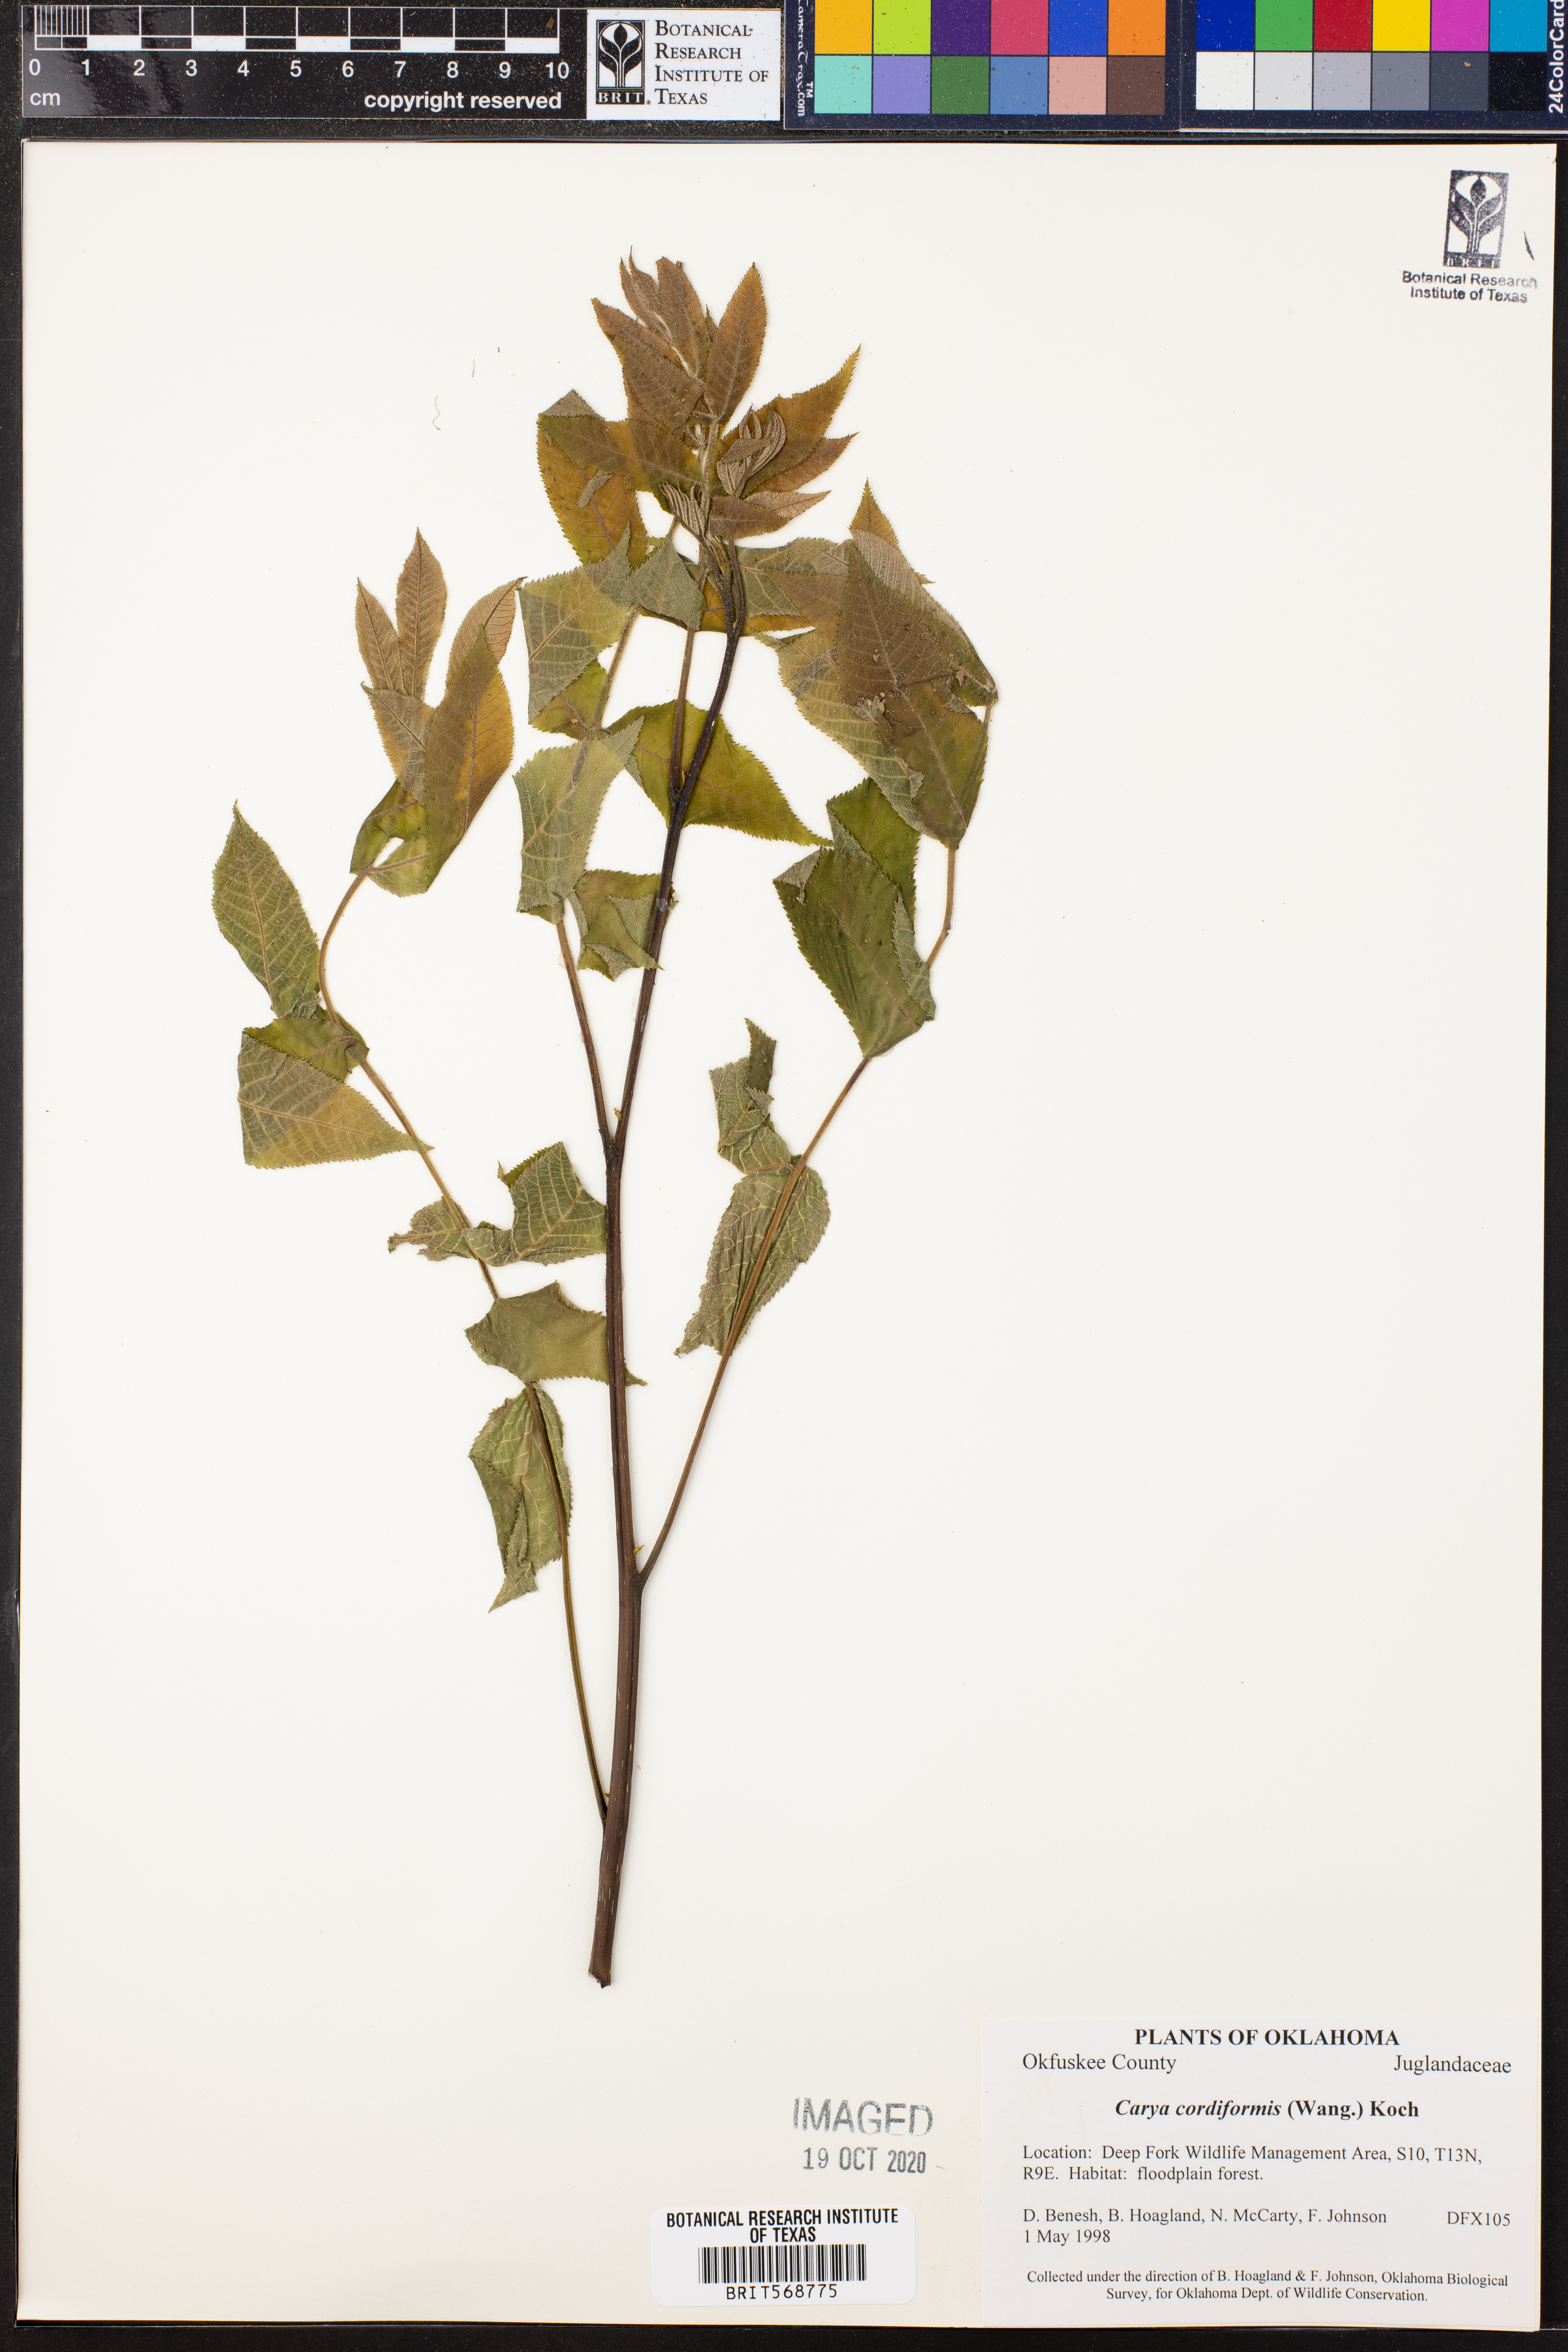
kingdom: Plantae
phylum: Tracheophyta
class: Magnoliopsida
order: Fagales
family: Juglandaceae
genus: Carya
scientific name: Carya cordiformis
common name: Bitternut hickory
